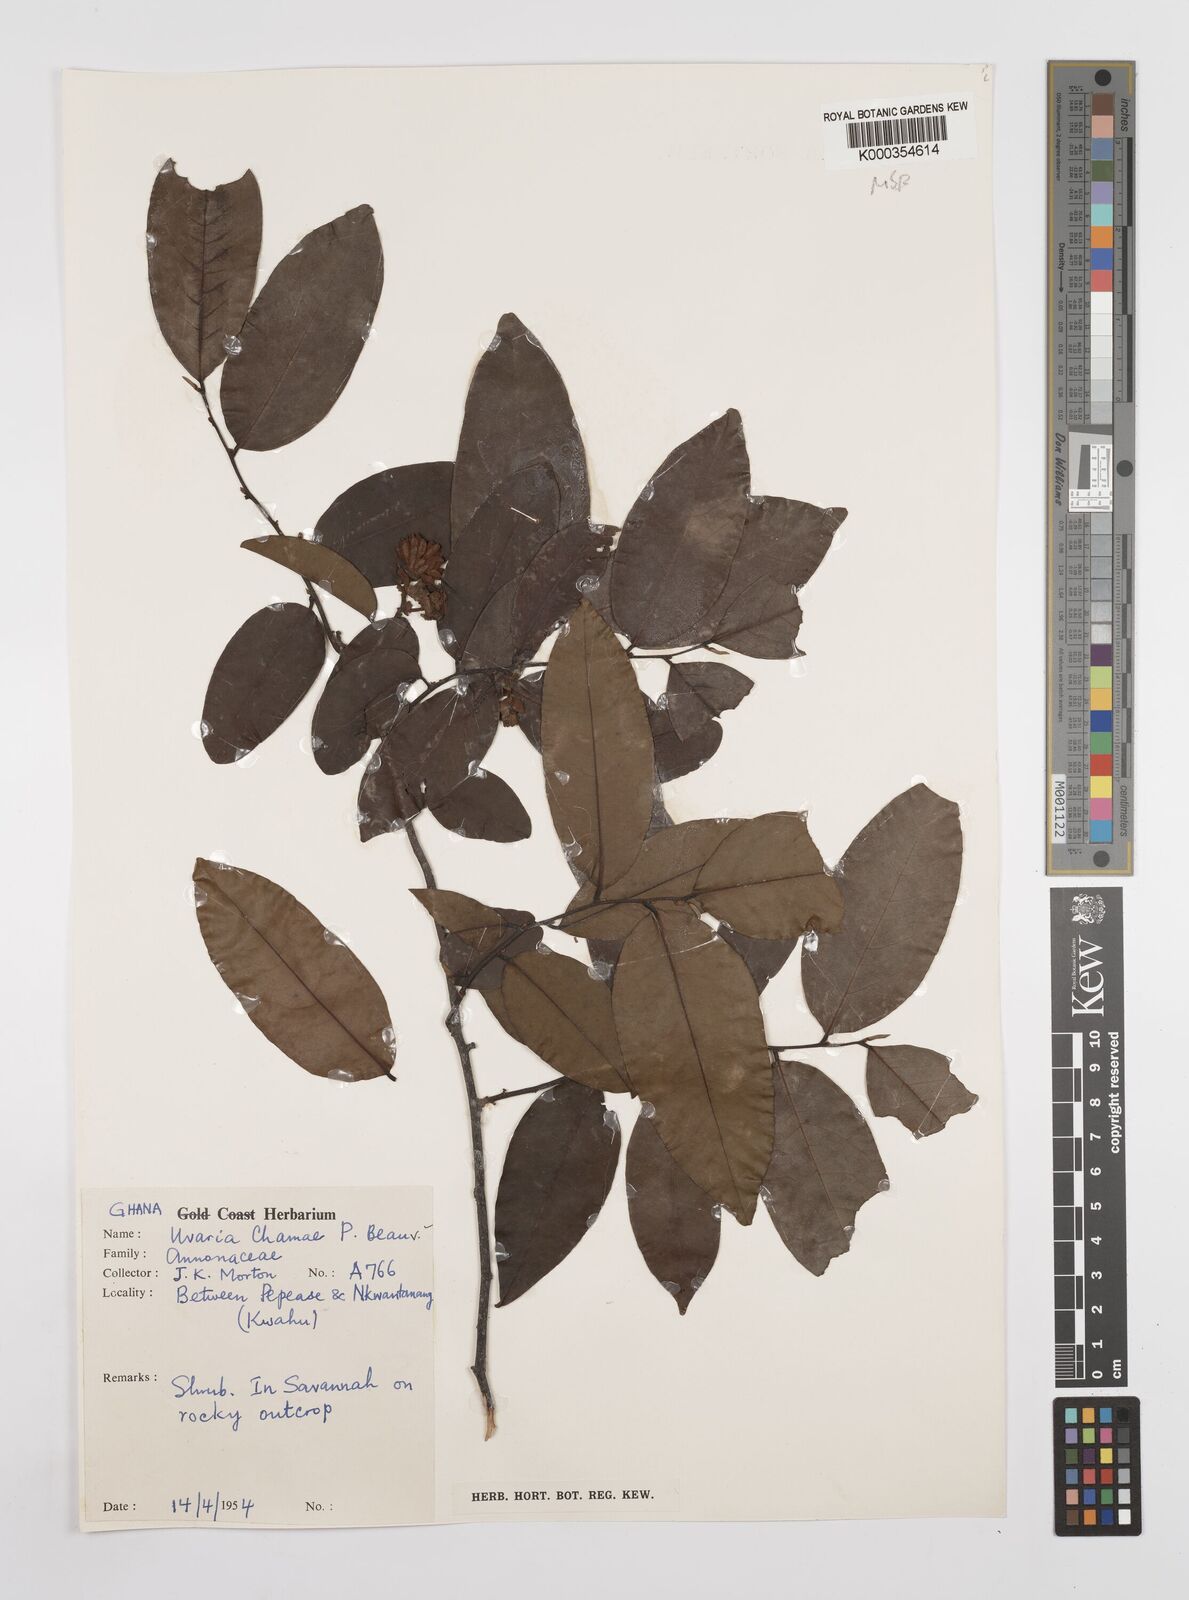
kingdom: Plantae
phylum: Tracheophyta
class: Magnoliopsida
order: Magnoliales
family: Annonaceae
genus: Uvaria
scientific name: Uvaria chamae
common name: Finger-root
